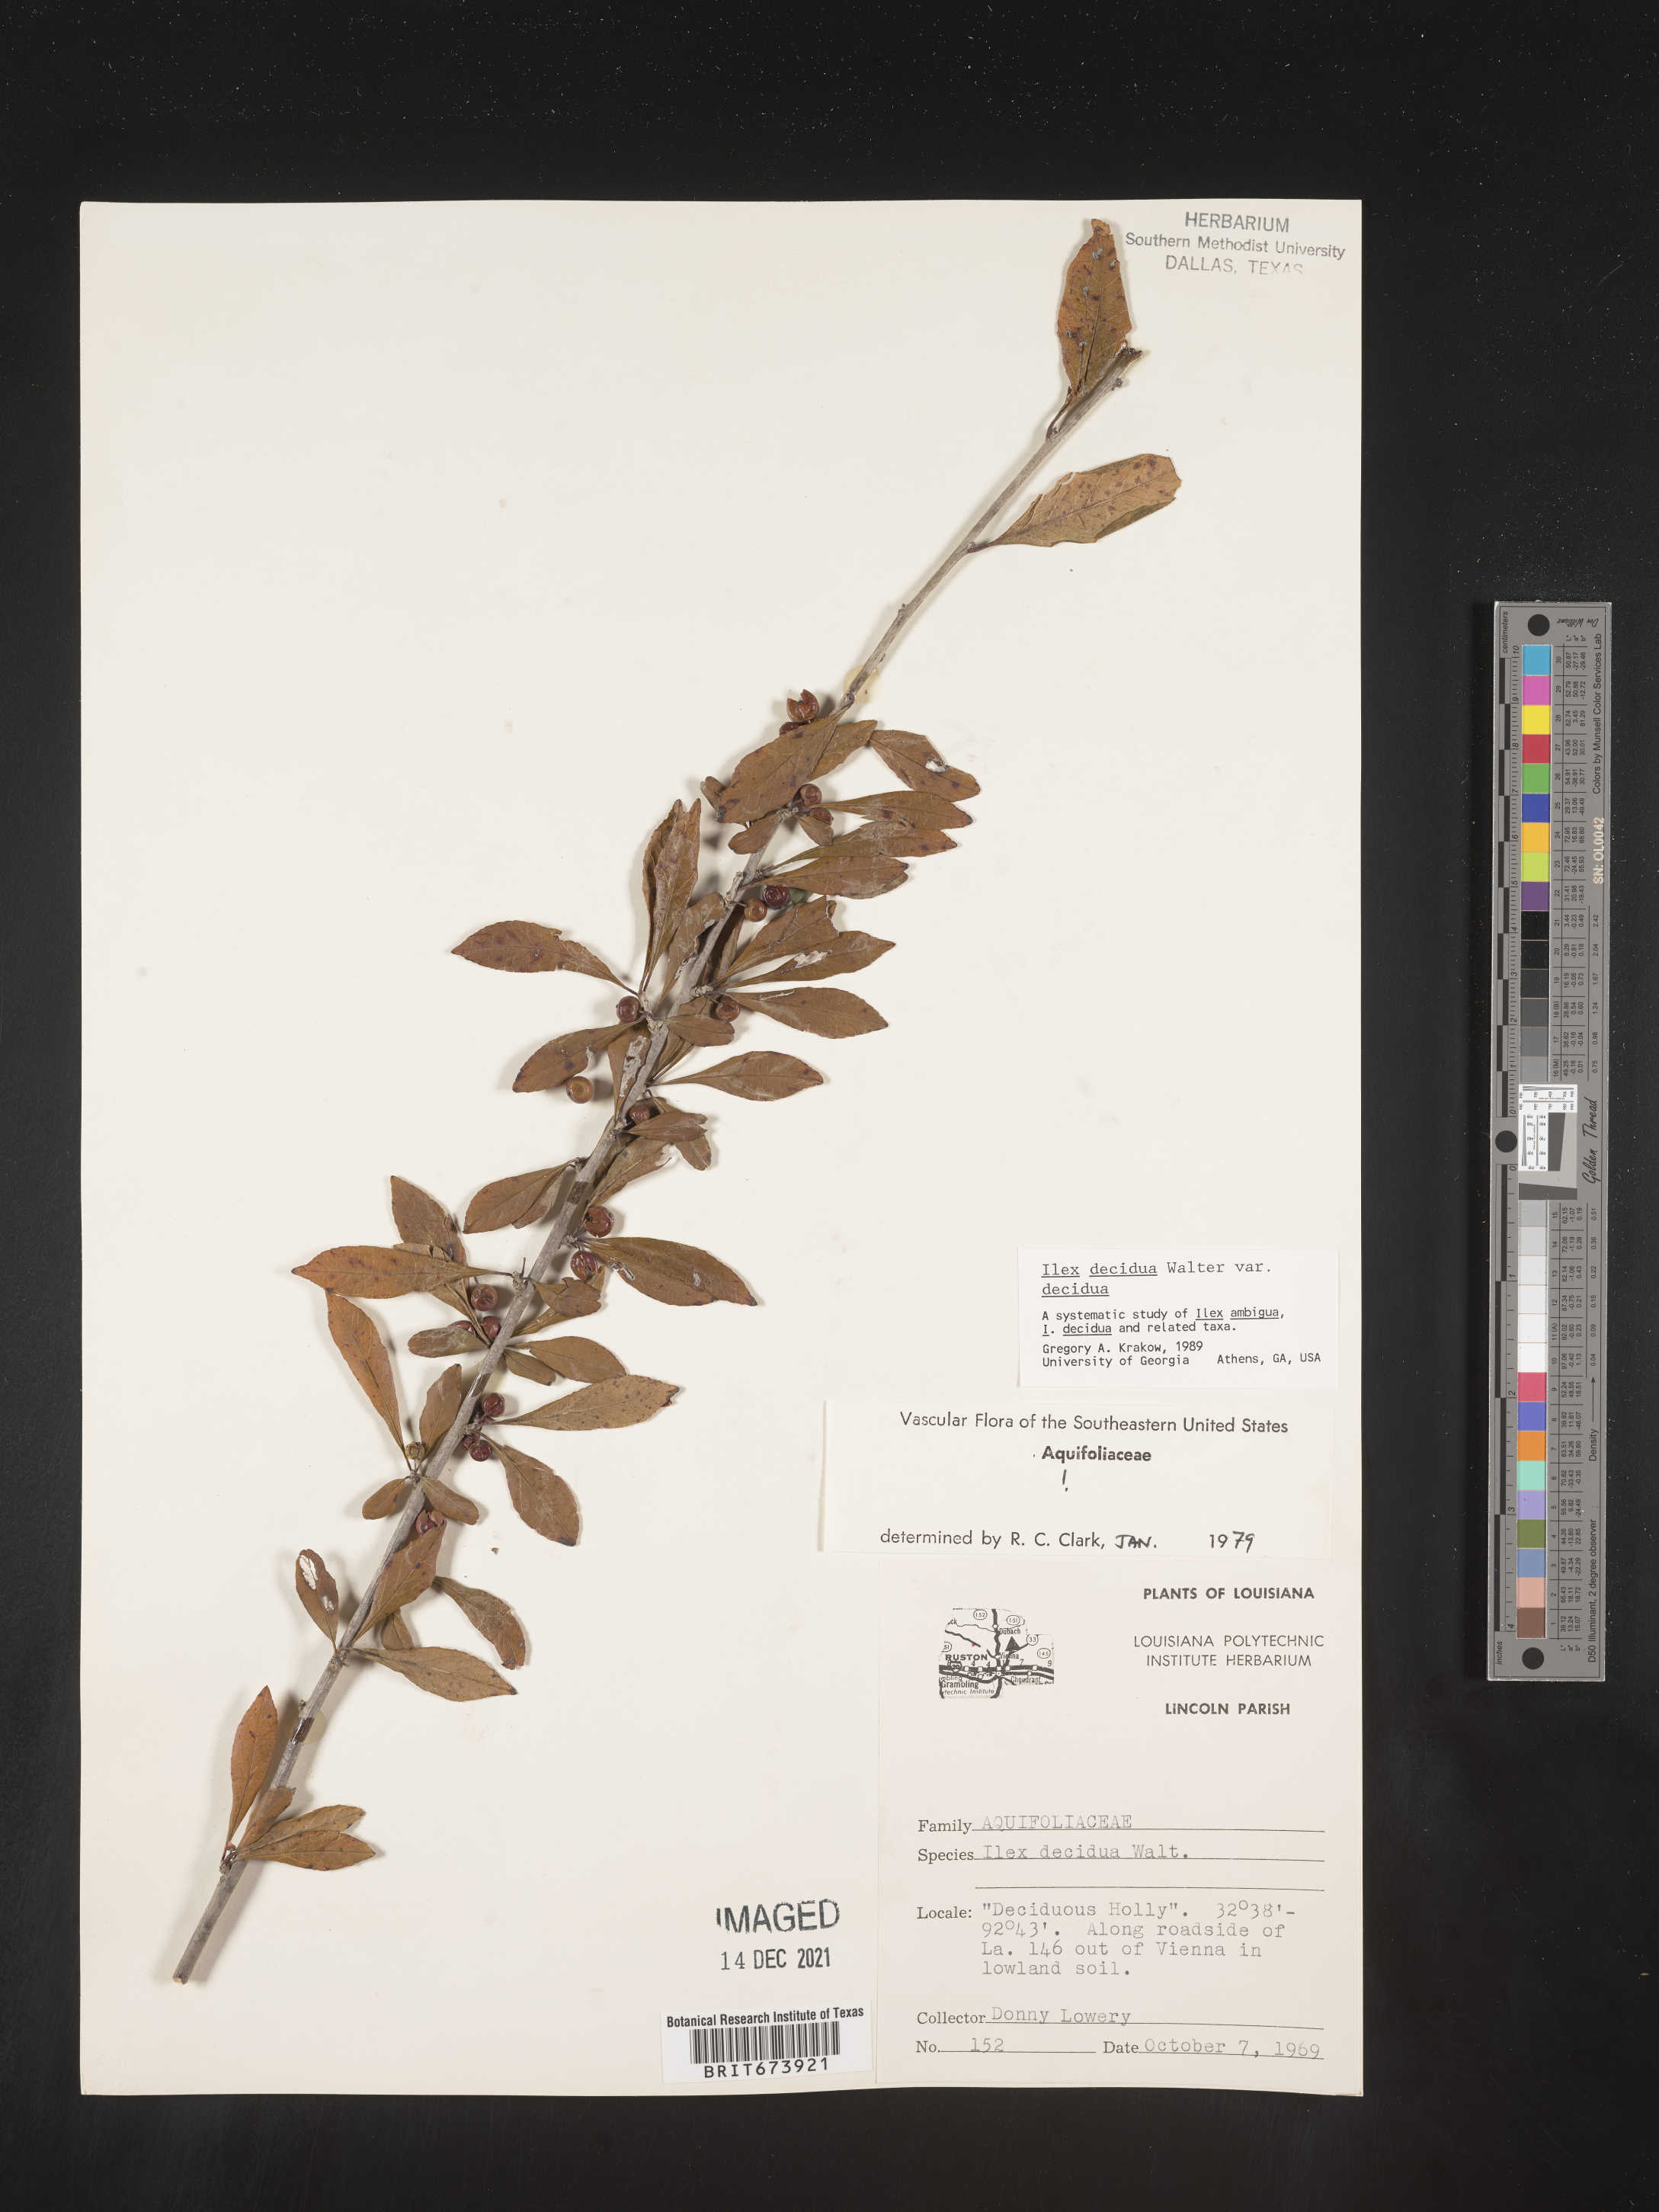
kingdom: Plantae
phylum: Tracheophyta
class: Magnoliopsida
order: Aquifoliales
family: Aquifoliaceae
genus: Ilex
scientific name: Ilex decidua
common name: Possum-haw
